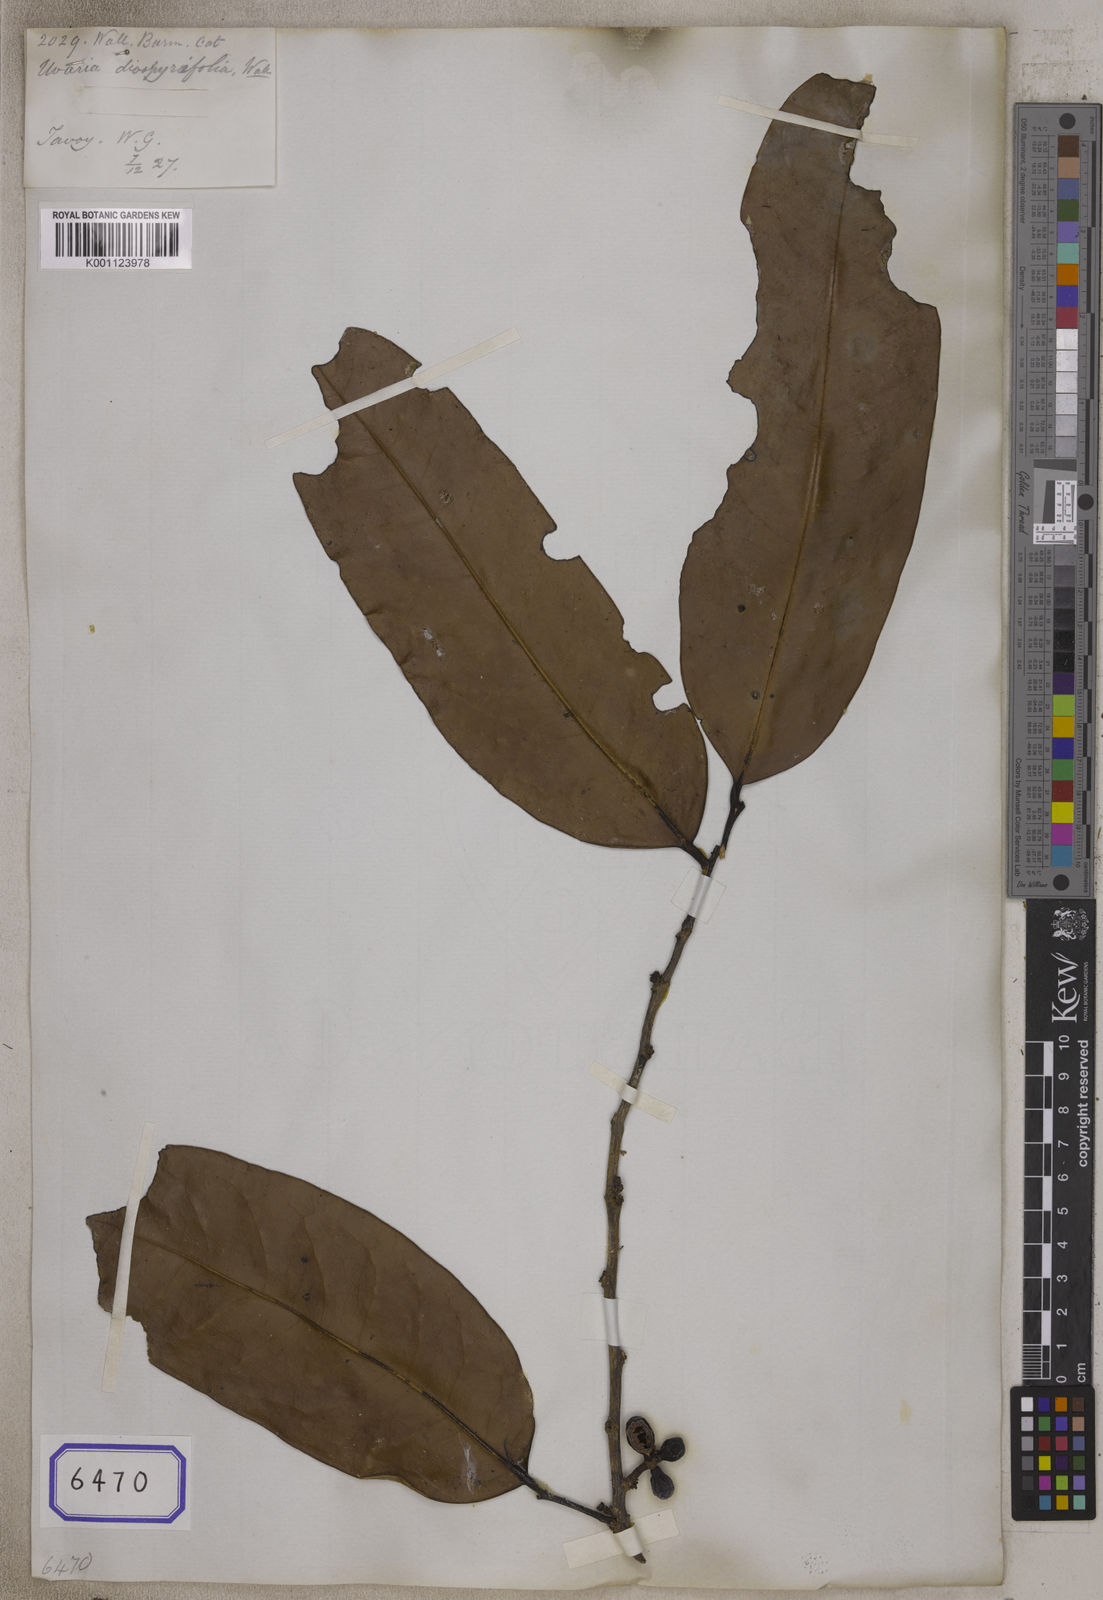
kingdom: Plantae
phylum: Tracheophyta
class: Magnoliopsida
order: Magnoliales
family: Annonaceae
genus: Sageraea
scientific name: Sageraea elliptica
